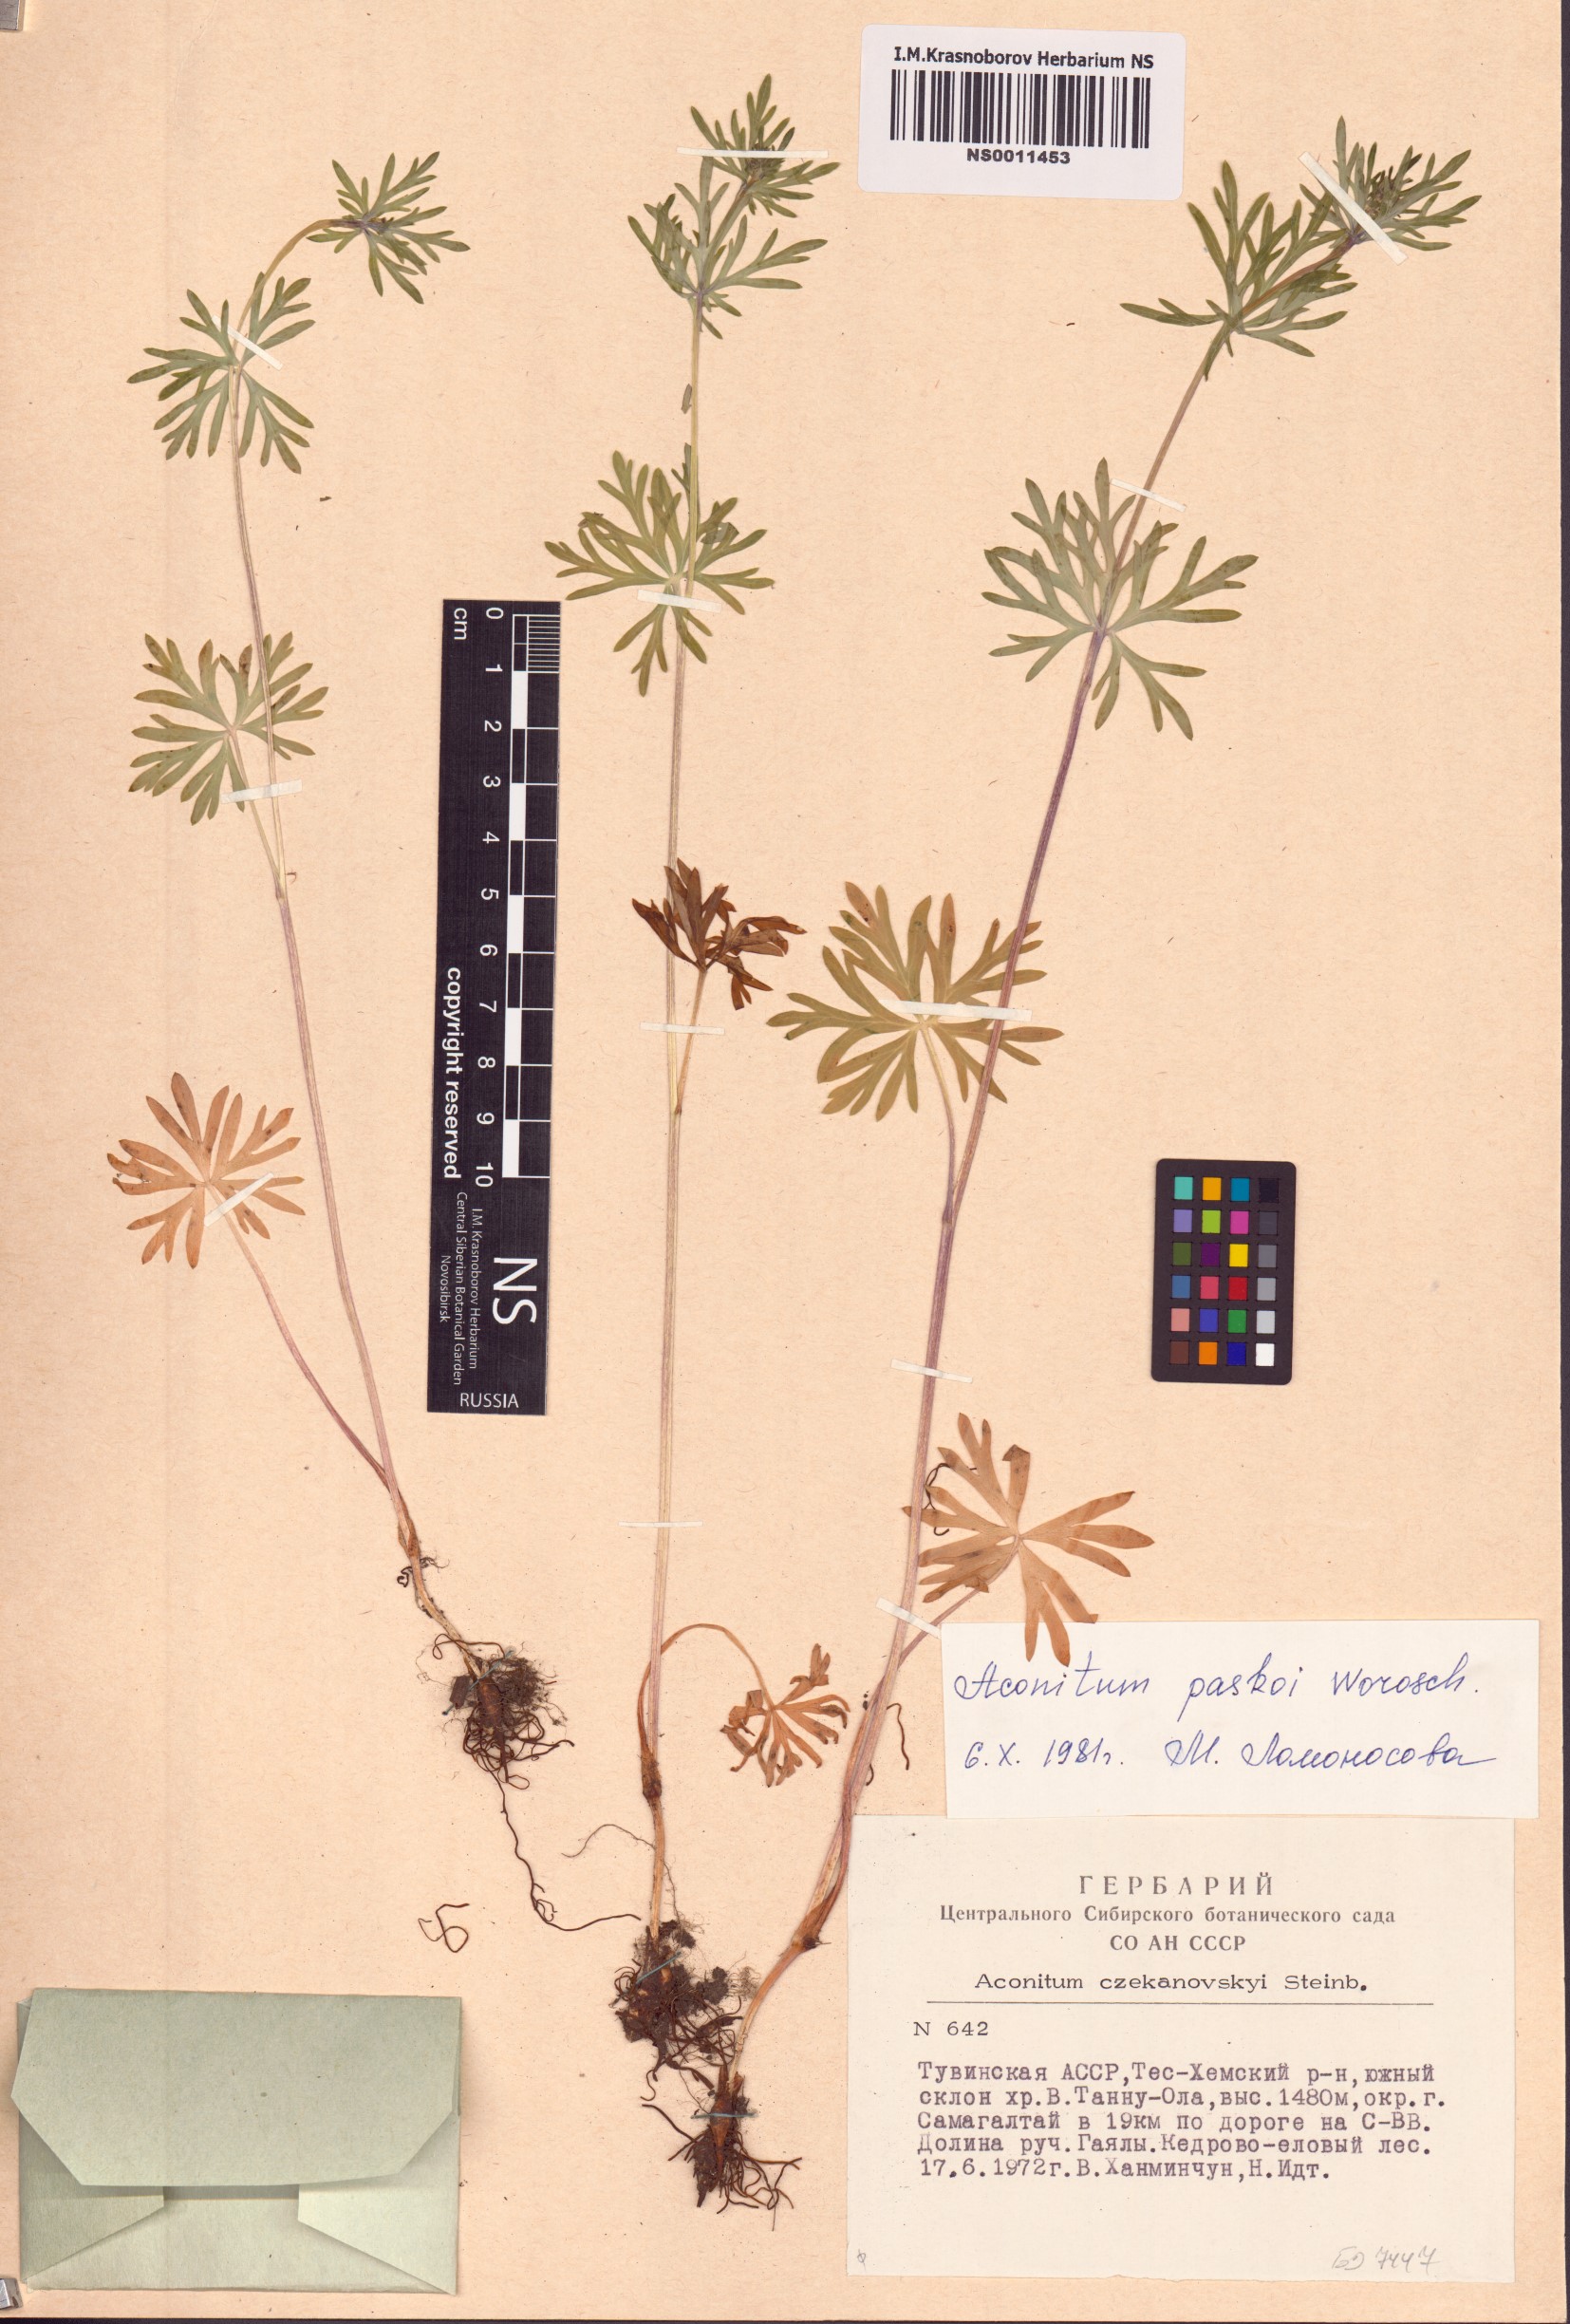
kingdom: Plantae
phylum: Tracheophyta
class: Magnoliopsida
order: Ranunculales
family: Ranunculaceae
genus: Aconitum
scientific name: Aconitum pascoi
